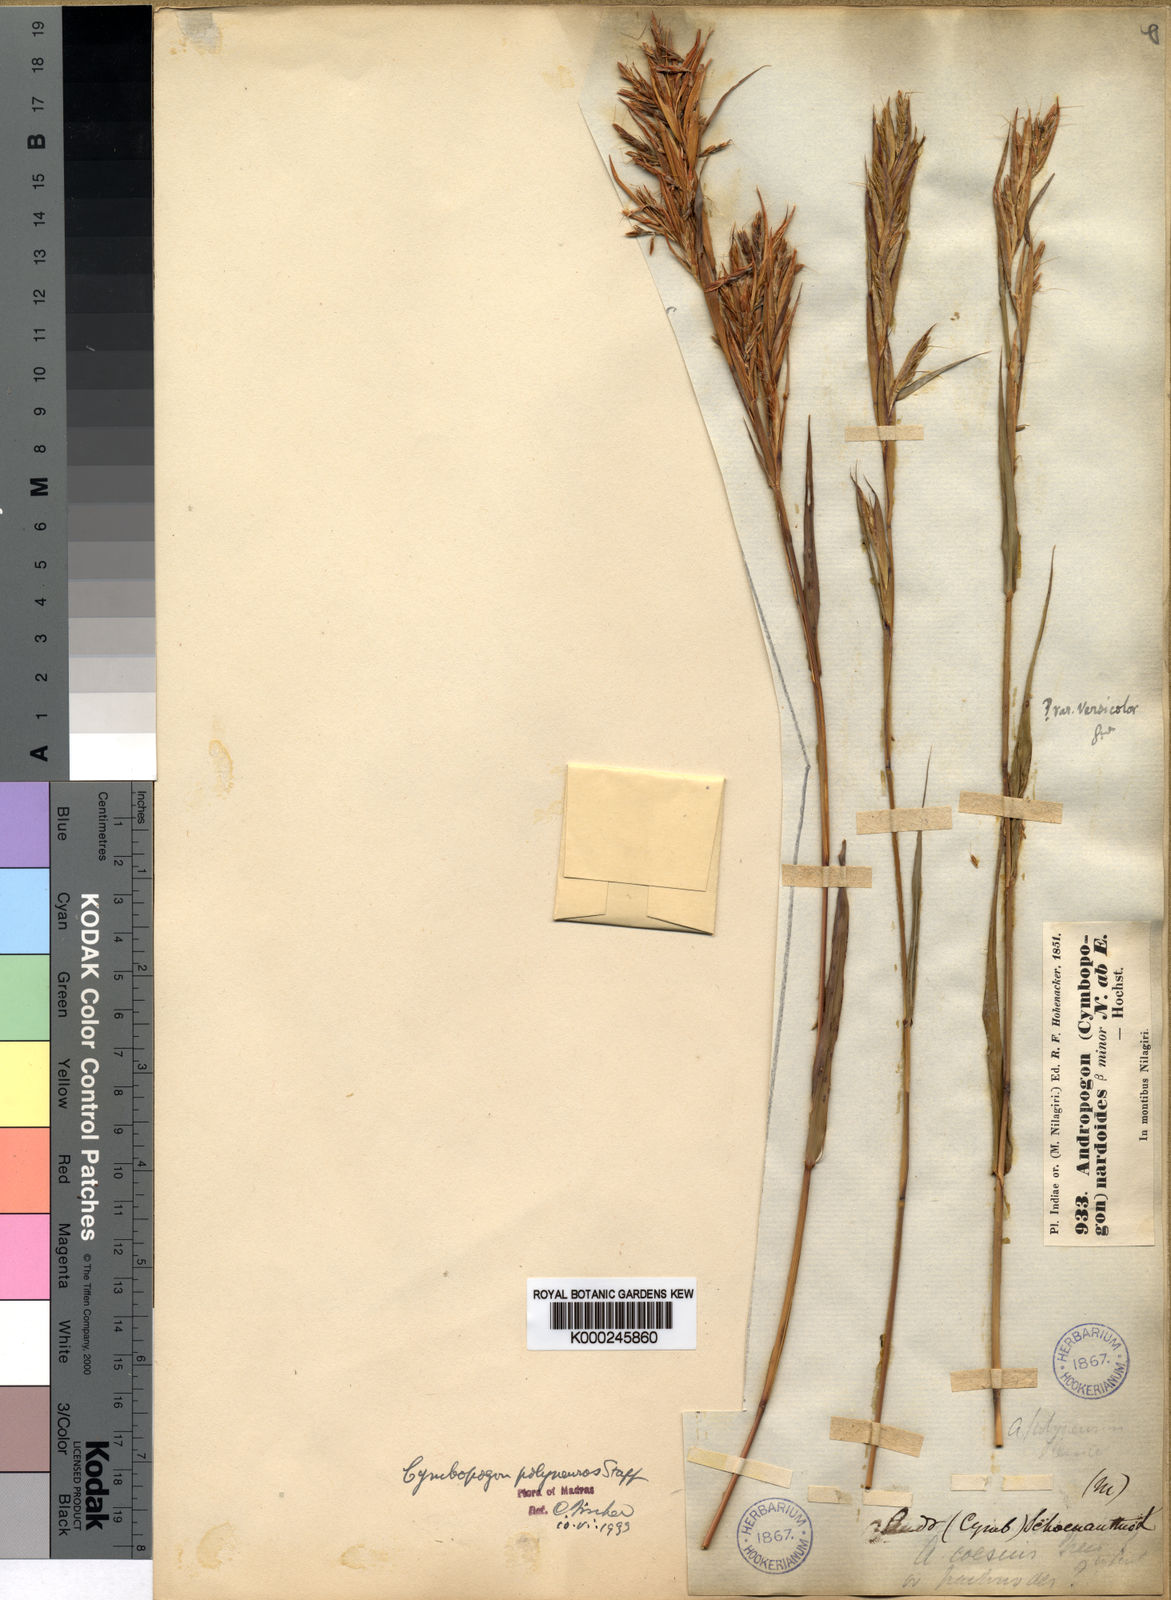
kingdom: Plantae
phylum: Tracheophyta
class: Liliopsida
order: Poales
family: Poaceae
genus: Cymbopogon
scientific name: Cymbopogon polyneuros
